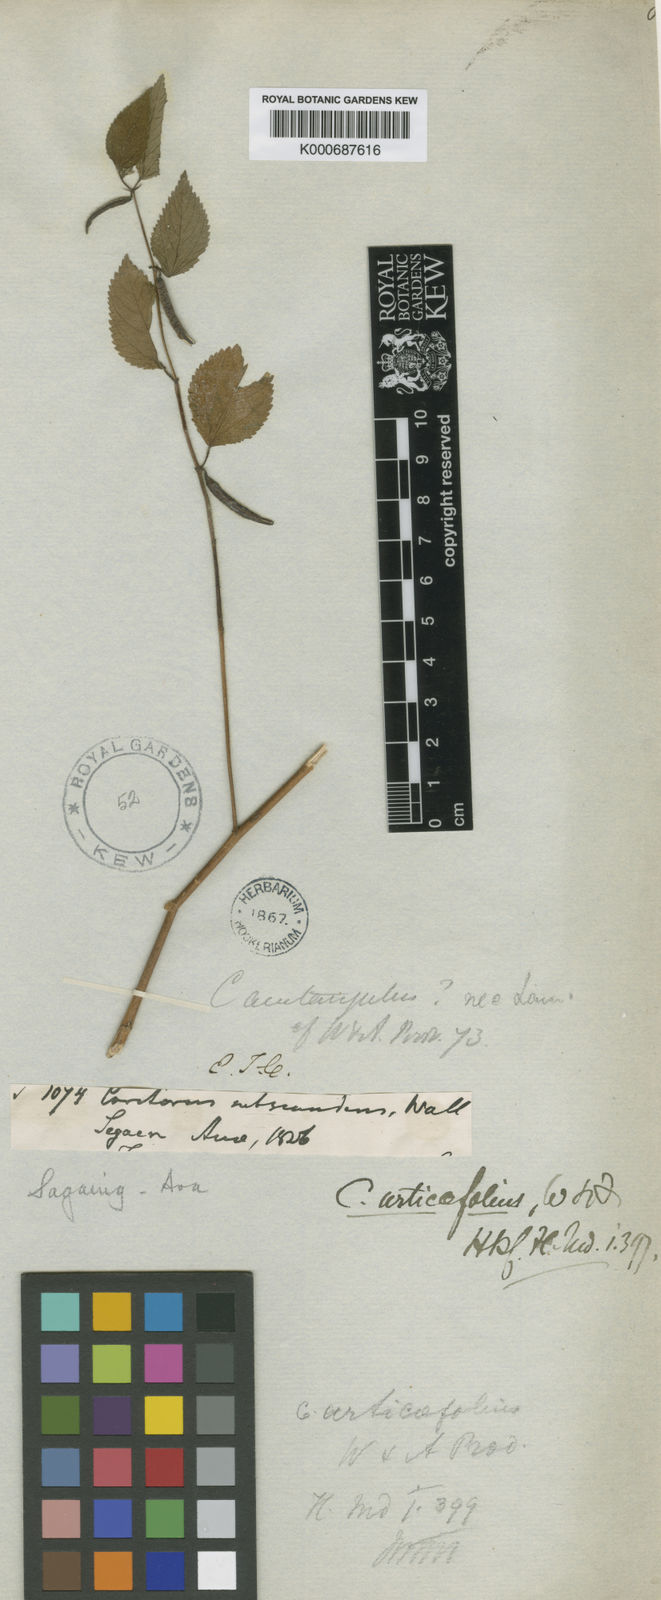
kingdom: Plantae
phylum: Tracheophyta
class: Magnoliopsida
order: Malvales
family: Malvaceae
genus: Corchorus
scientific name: Corchorus urticifolius
